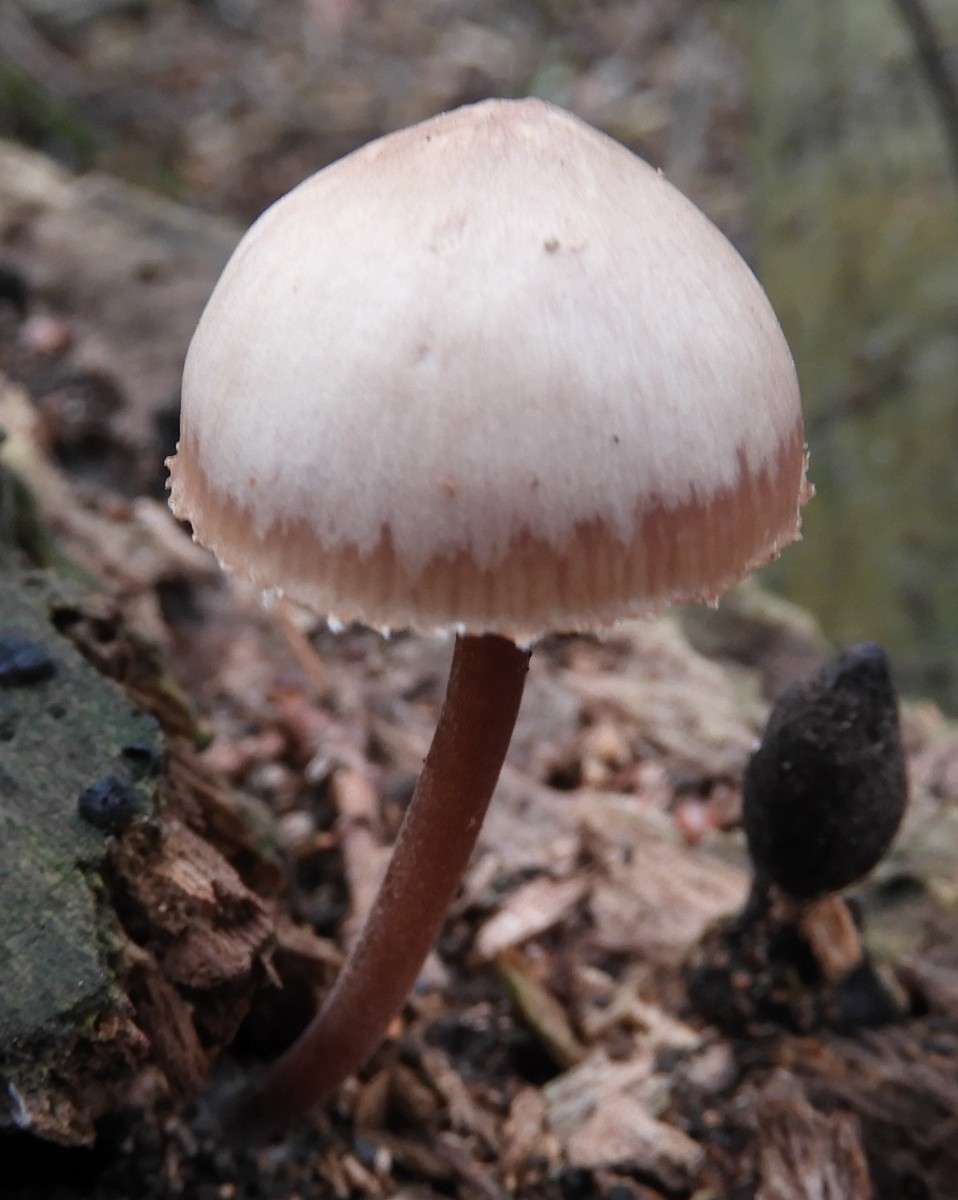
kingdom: Fungi
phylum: Basidiomycota
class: Agaricomycetes
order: Agaricales
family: Mycenaceae
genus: Mycena
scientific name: Mycena haematopus
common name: blødende huesvamp
